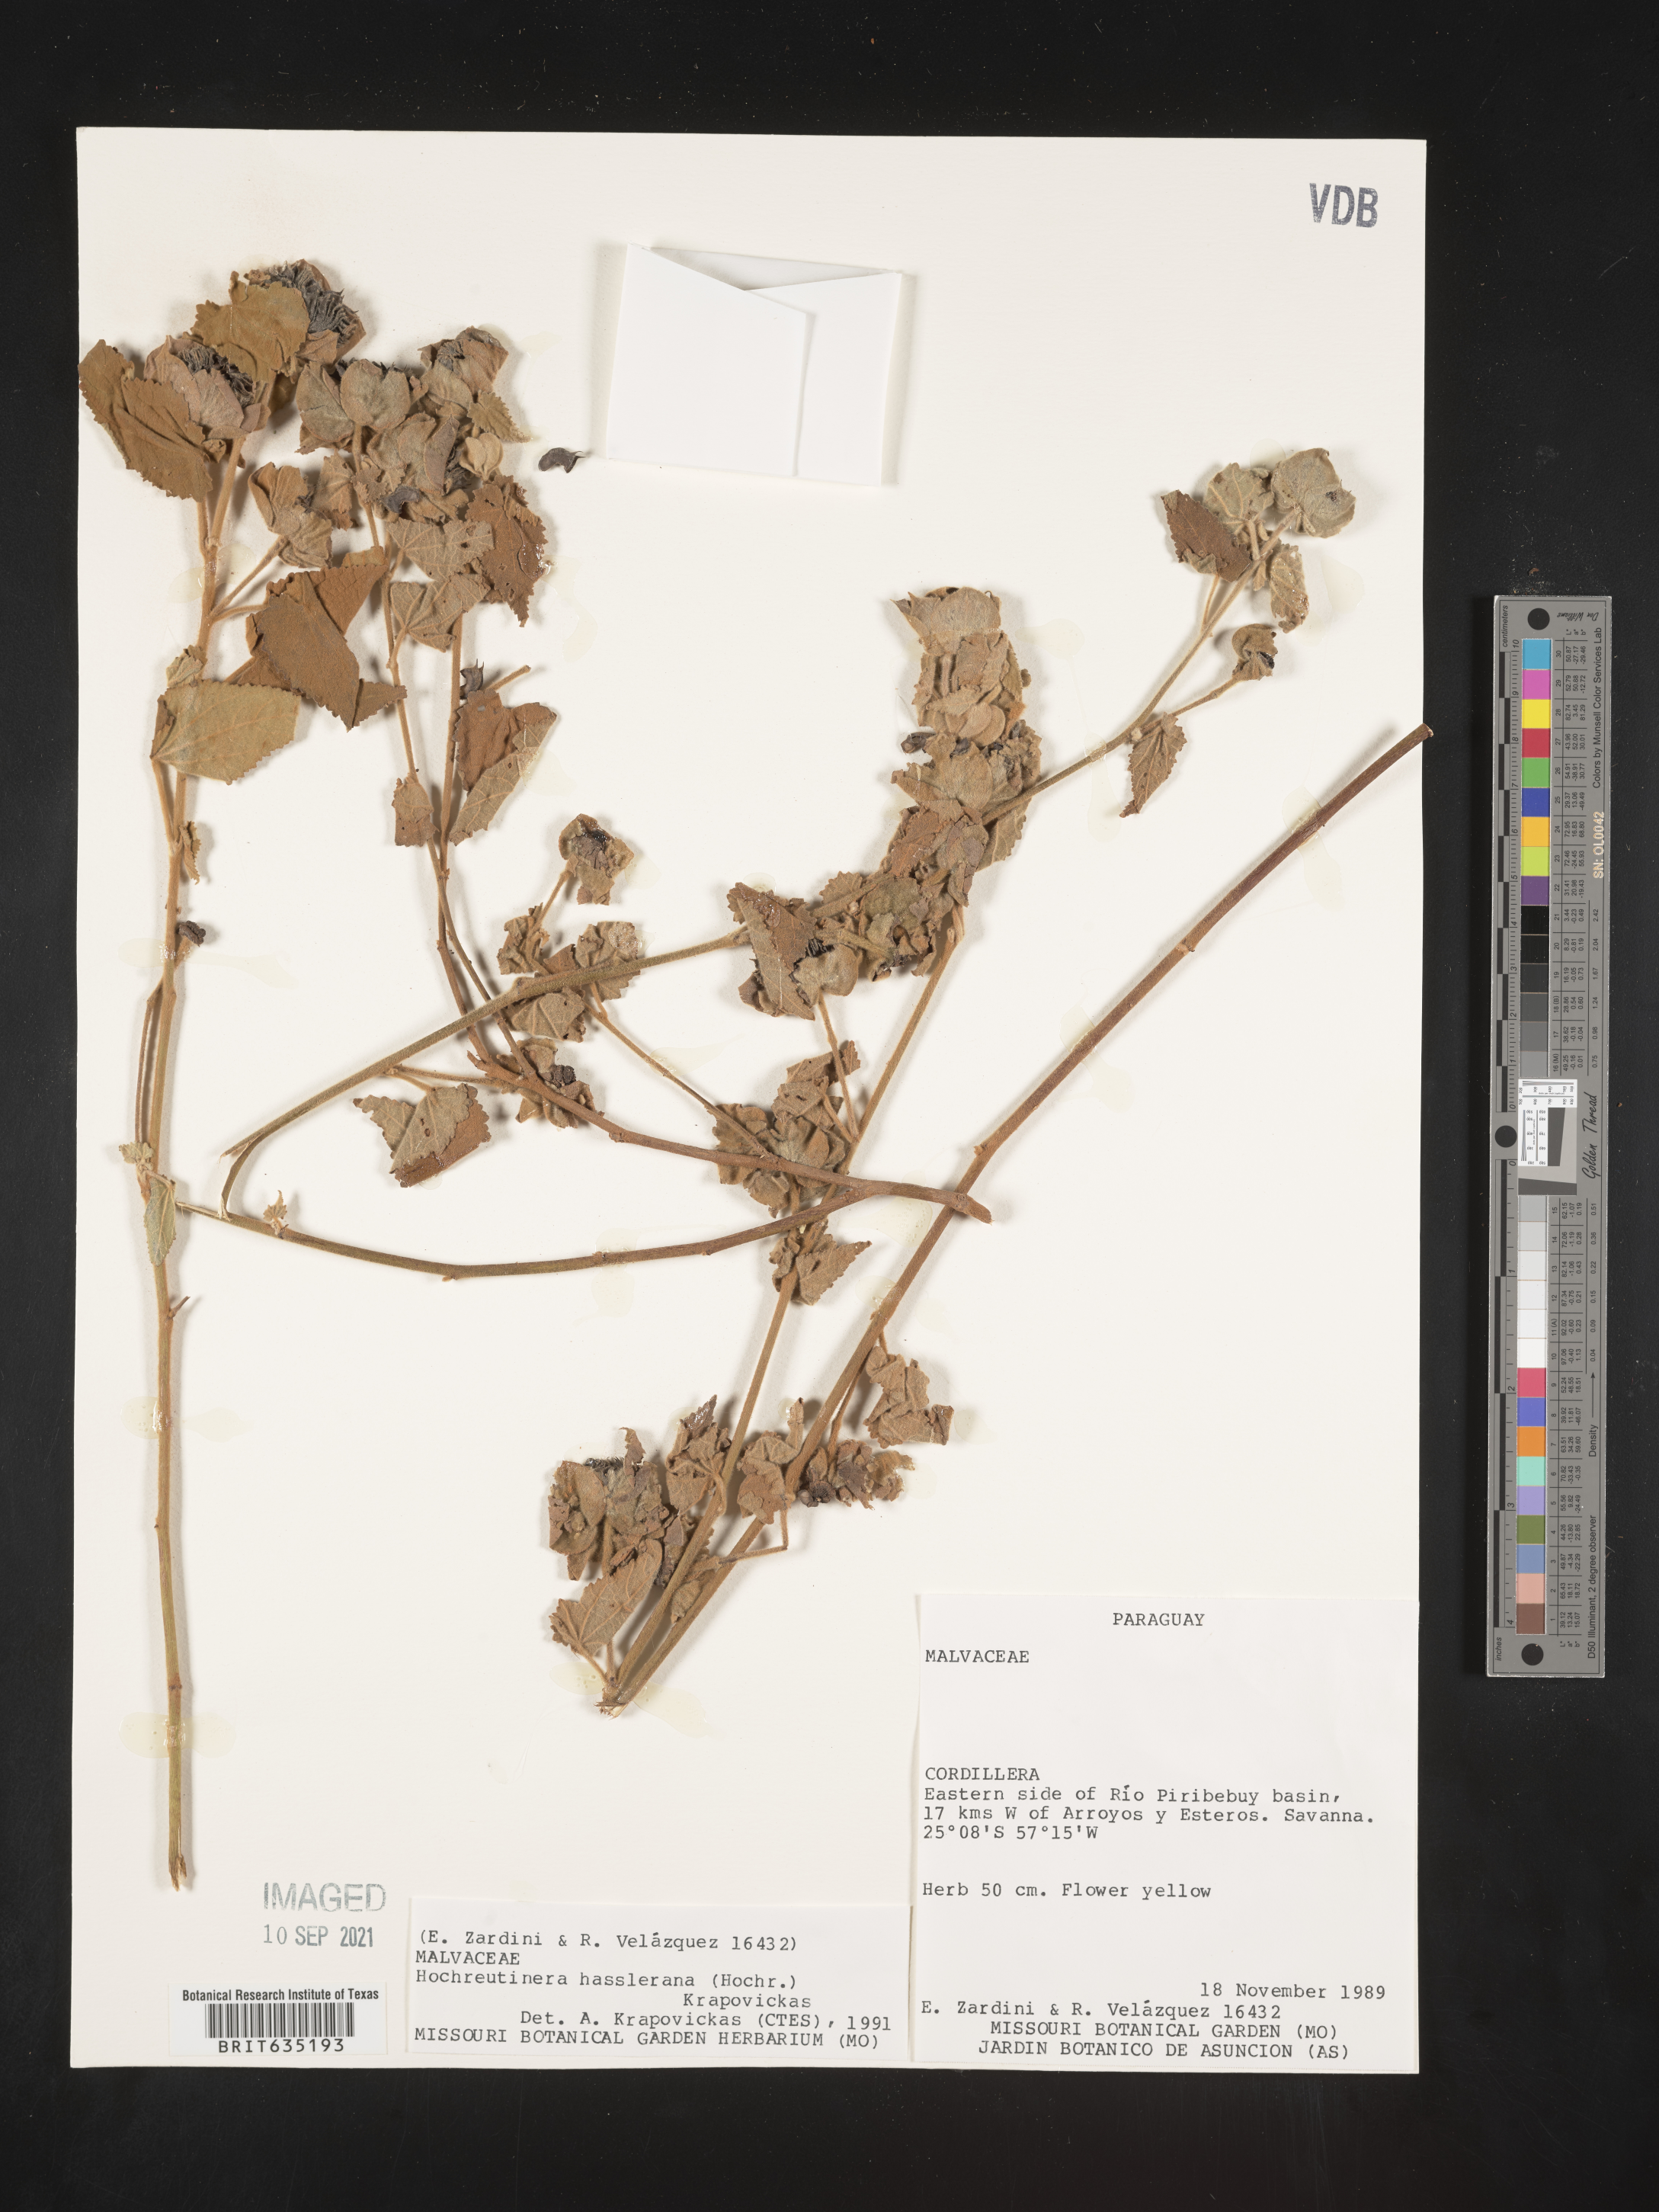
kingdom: Plantae
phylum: Tracheophyta
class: Magnoliopsida
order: Malvales
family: Malvaceae
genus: Hochreutinera
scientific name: Hochreutinera
